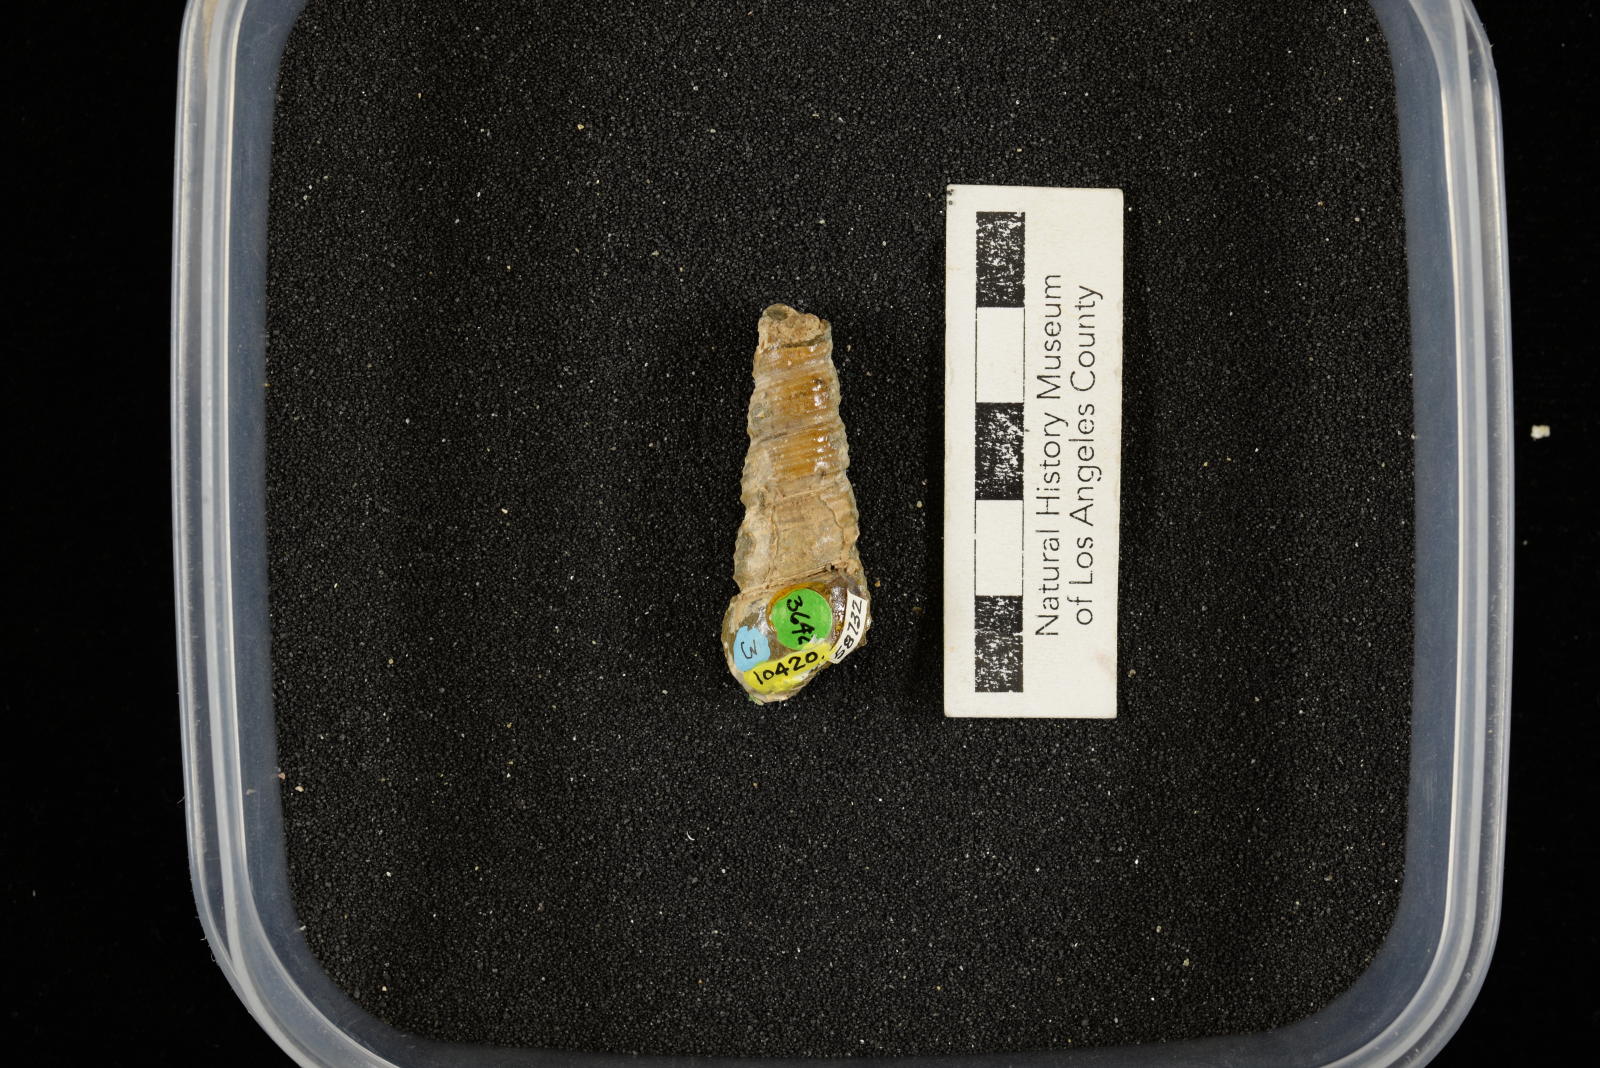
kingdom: Animalia
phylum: Mollusca
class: Gastropoda
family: Turritellidae
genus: Turritella
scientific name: Turritella chicoensis
